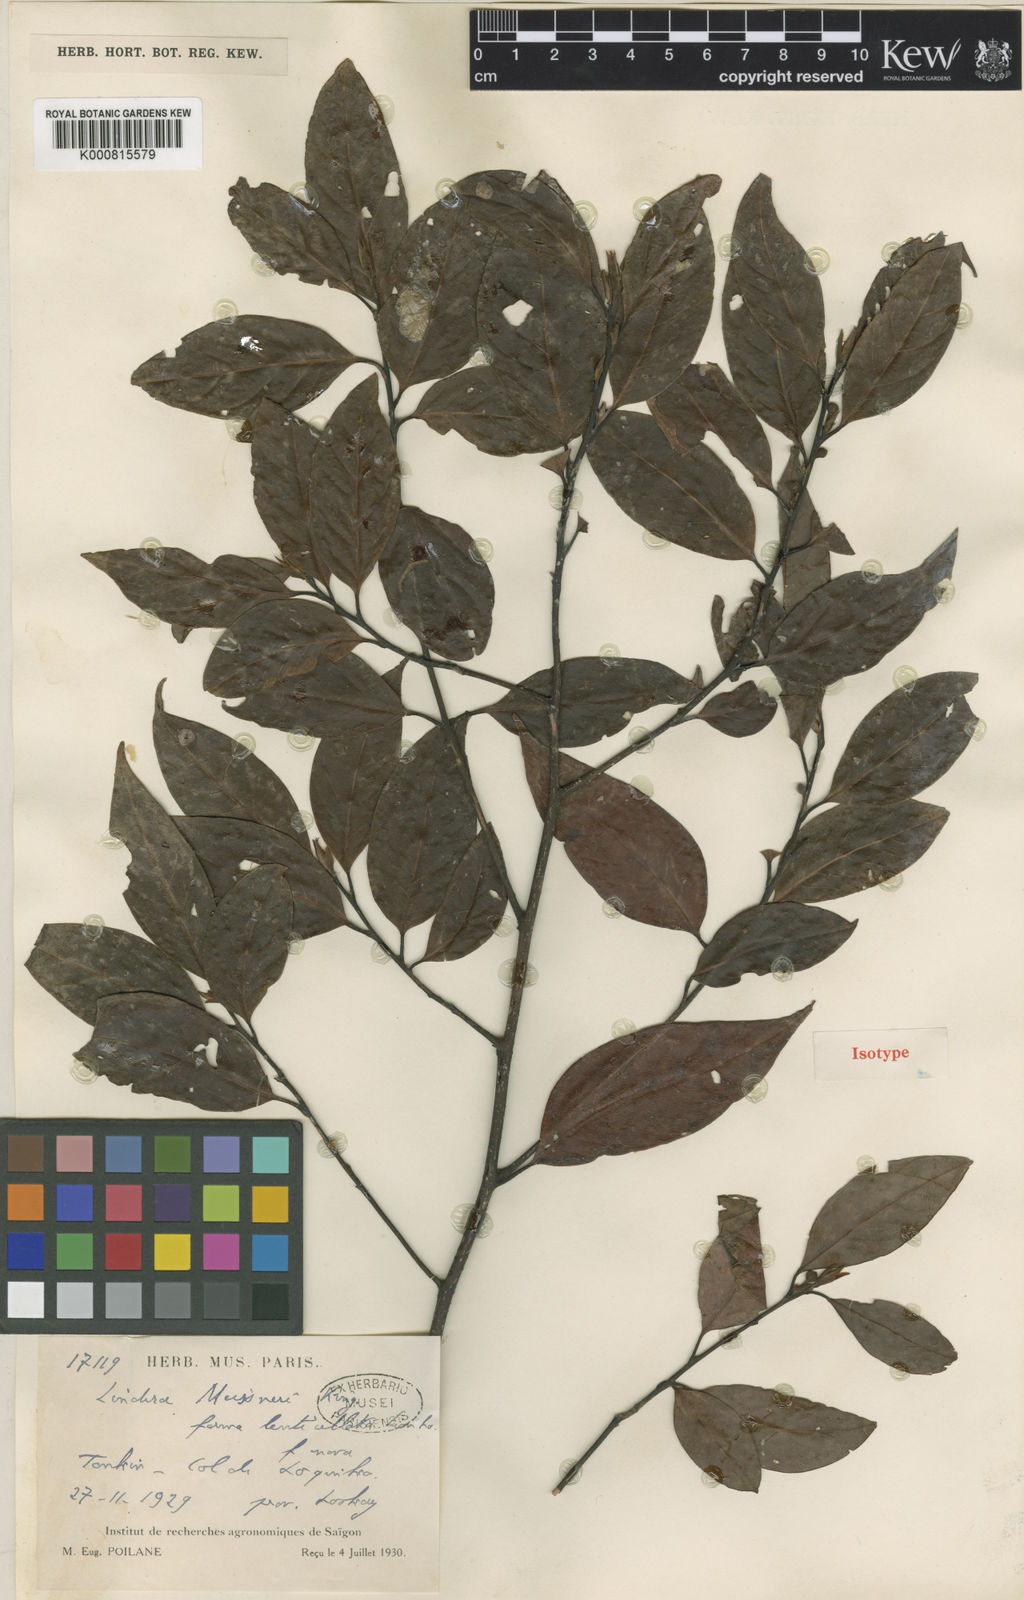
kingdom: Plantae
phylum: Tracheophyta
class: Magnoliopsida
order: Laurales
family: Lauraceae
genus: Lindera
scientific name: Lindera meissneri
